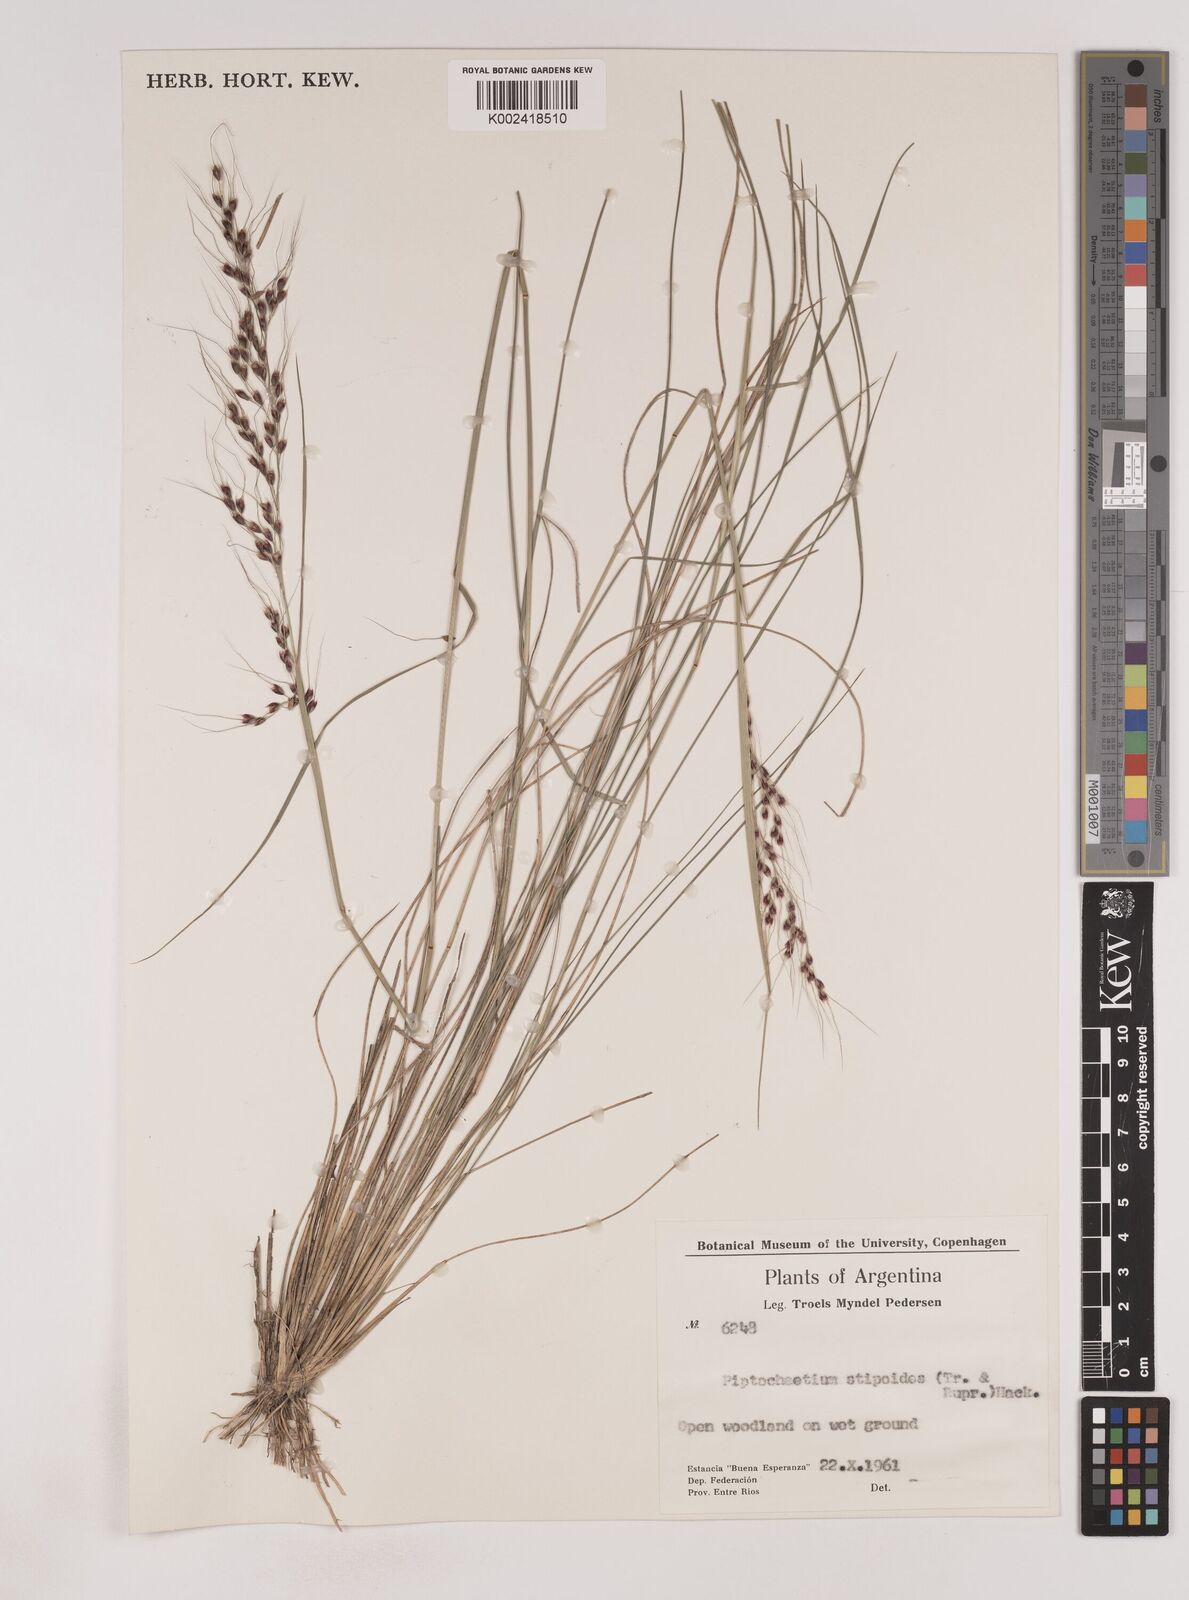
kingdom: Plantae
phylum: Tracheophyta
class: Liliopsida
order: Poales
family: Poaceae
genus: Piptochaetium
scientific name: Piptochaetium stipoides
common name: Purple speargrass
